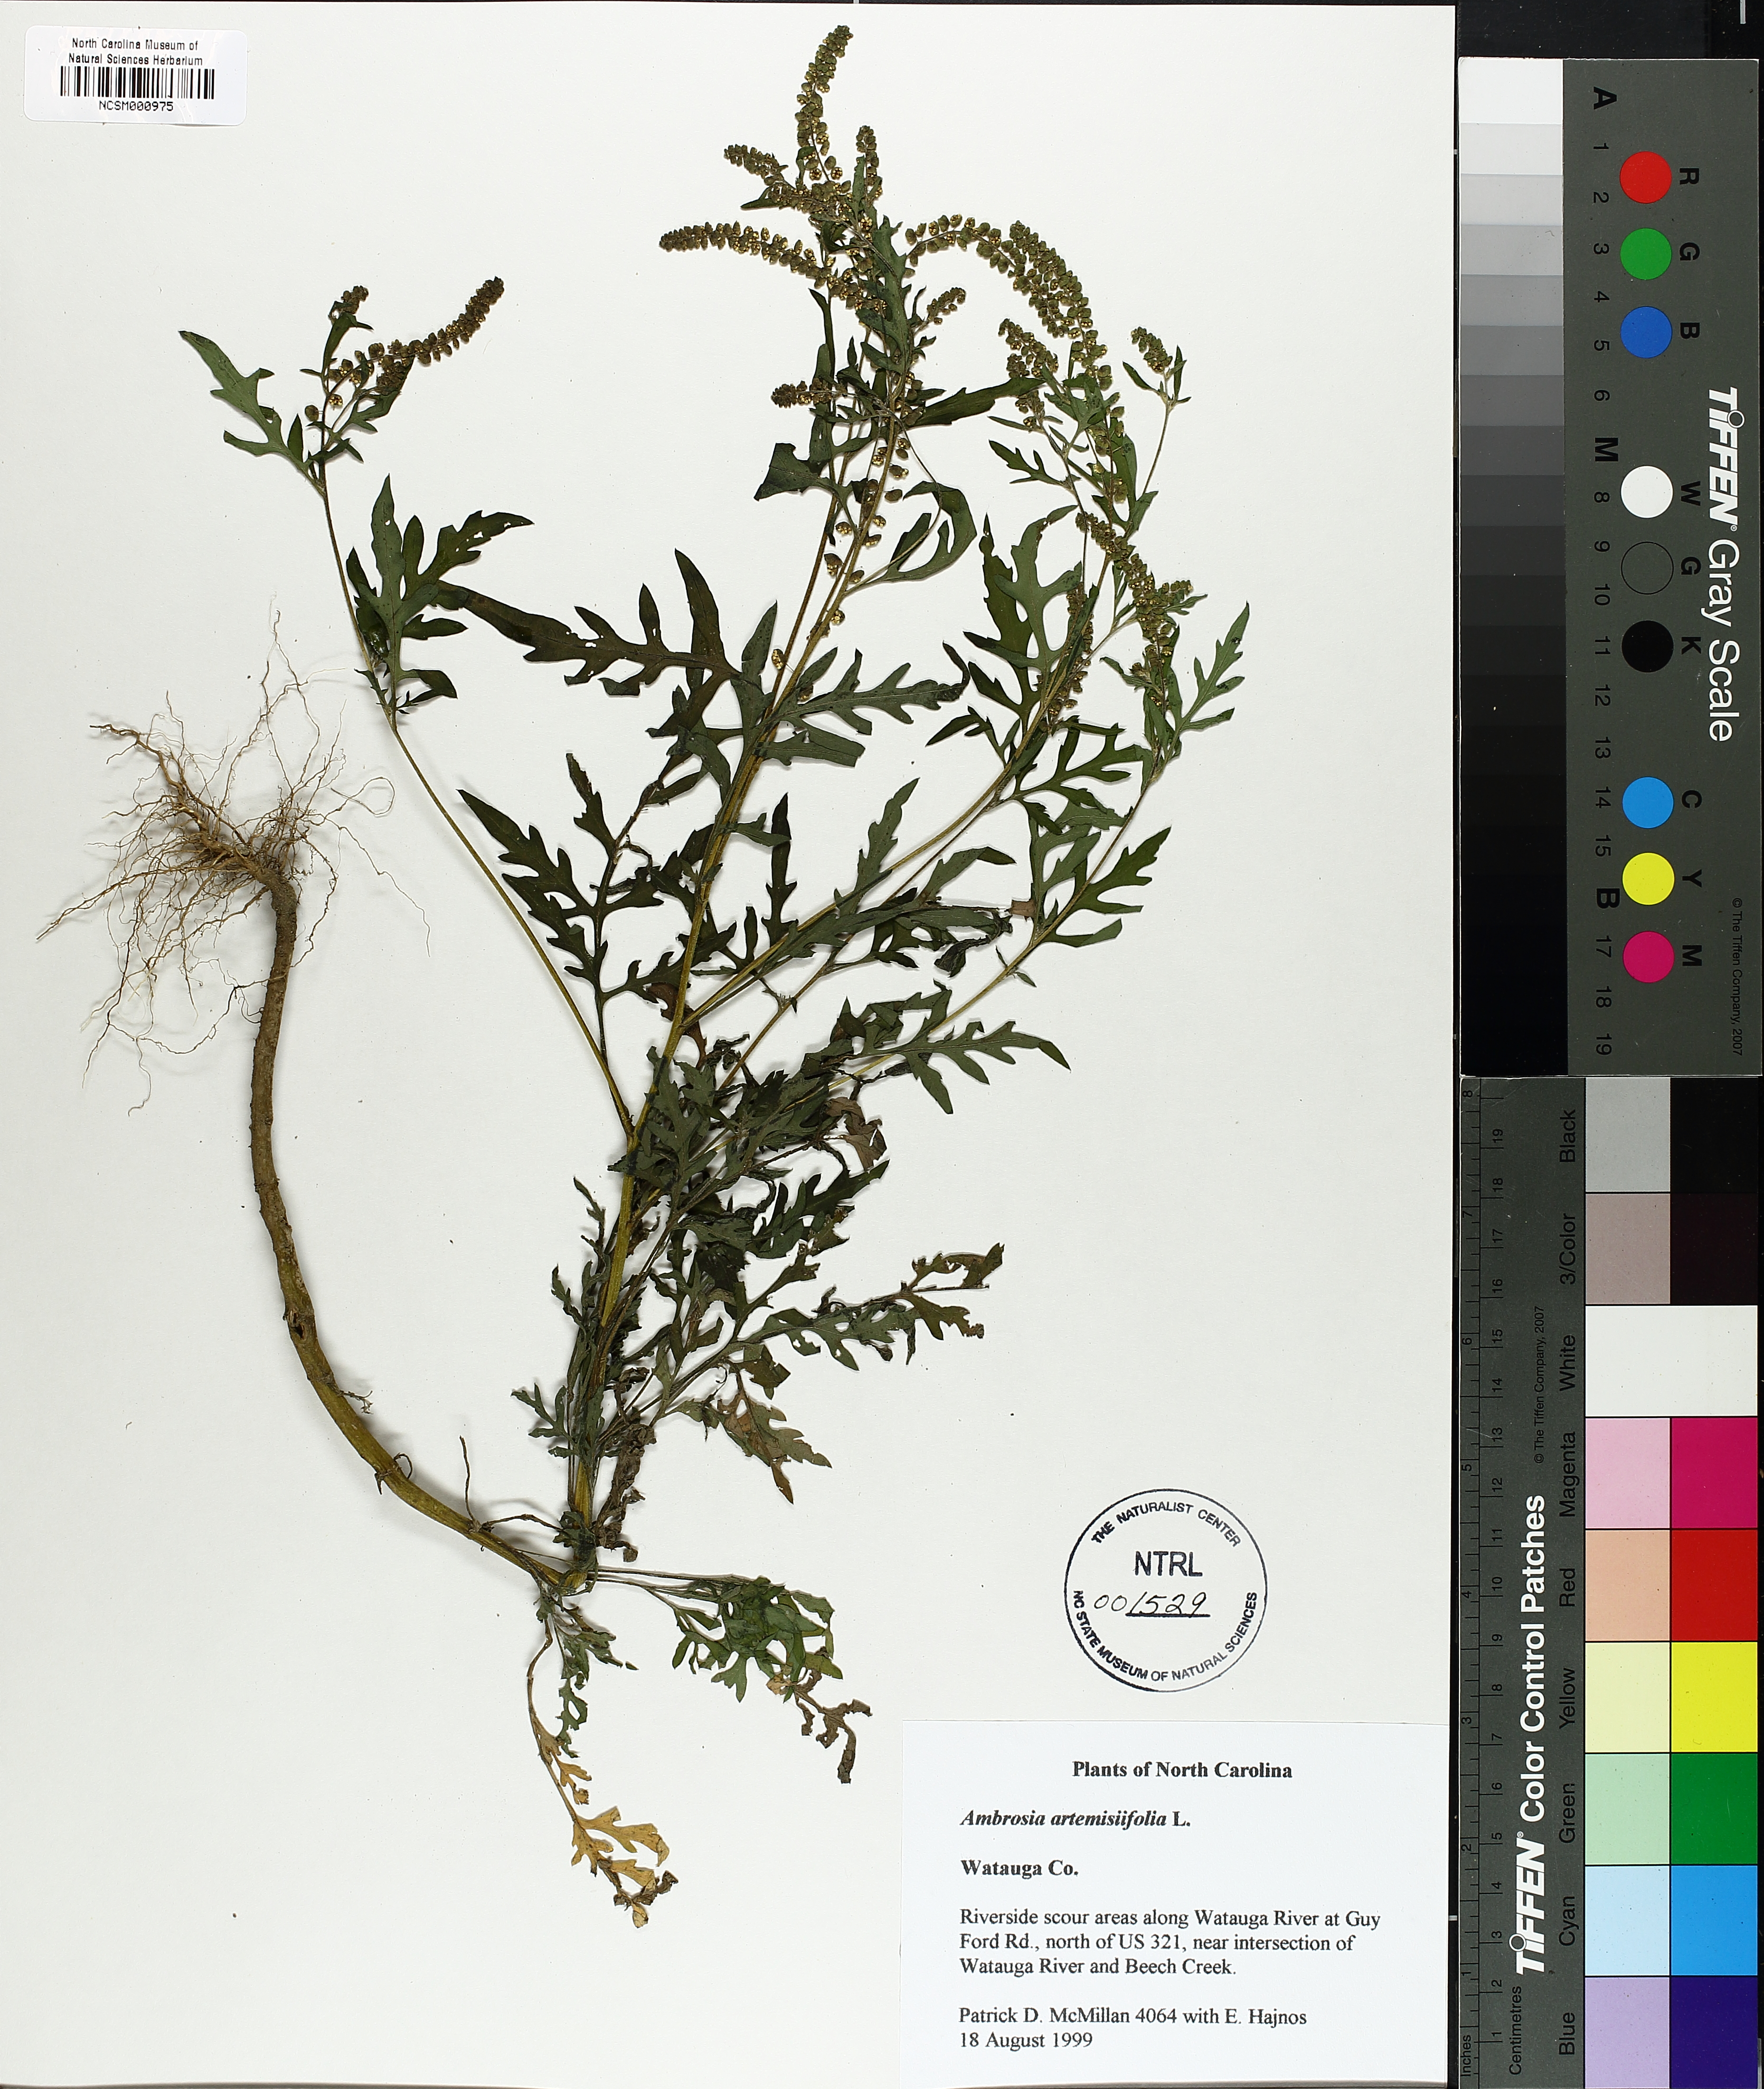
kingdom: Plantae
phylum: Tracheophyta
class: Magnoliopsida
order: Asterales
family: Asteraceae
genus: Ambrosia
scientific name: Ambrosia artemisiifolia
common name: Annual ragweed
